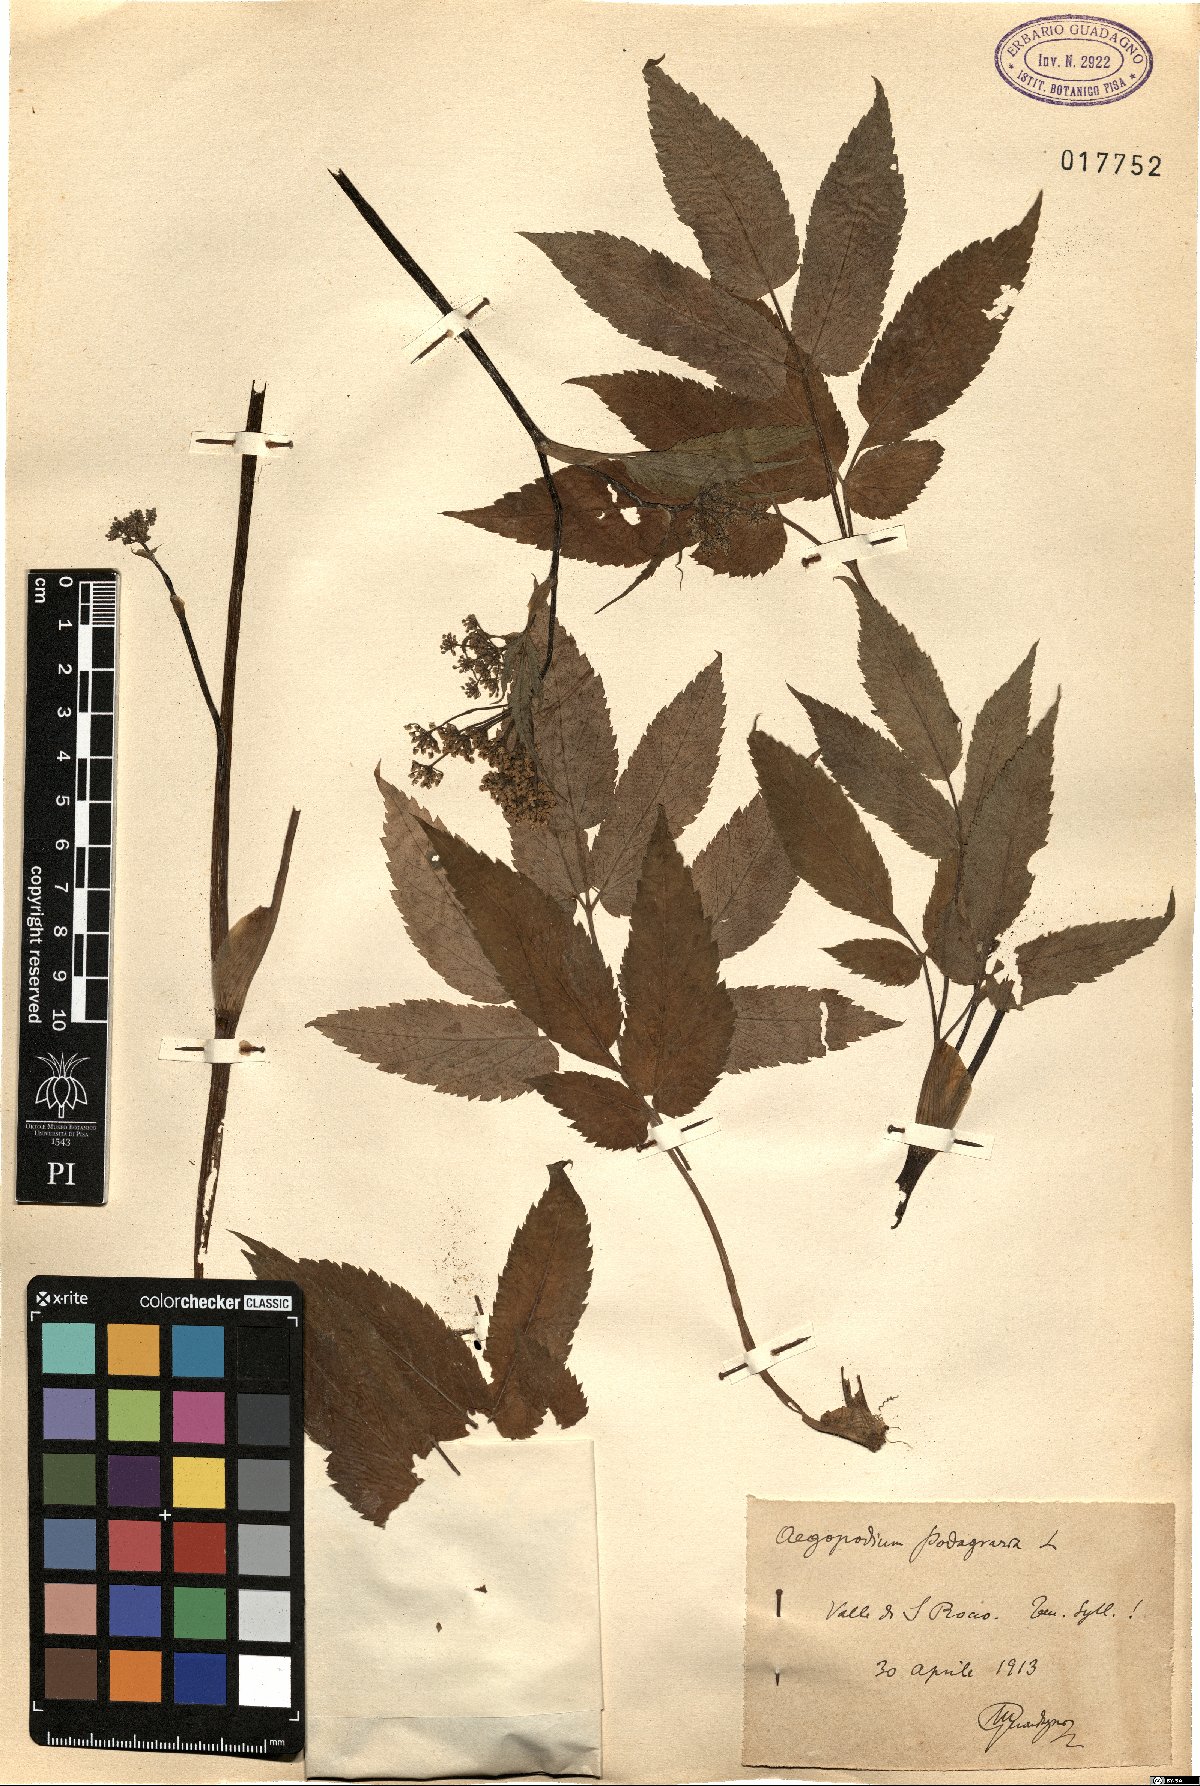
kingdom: Plantae
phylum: Tracheophyta
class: Magnoliopsida
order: Apiales
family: Apiaceae
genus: Aegopodium
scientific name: Aegopodium podagraria
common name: Ground-elder
